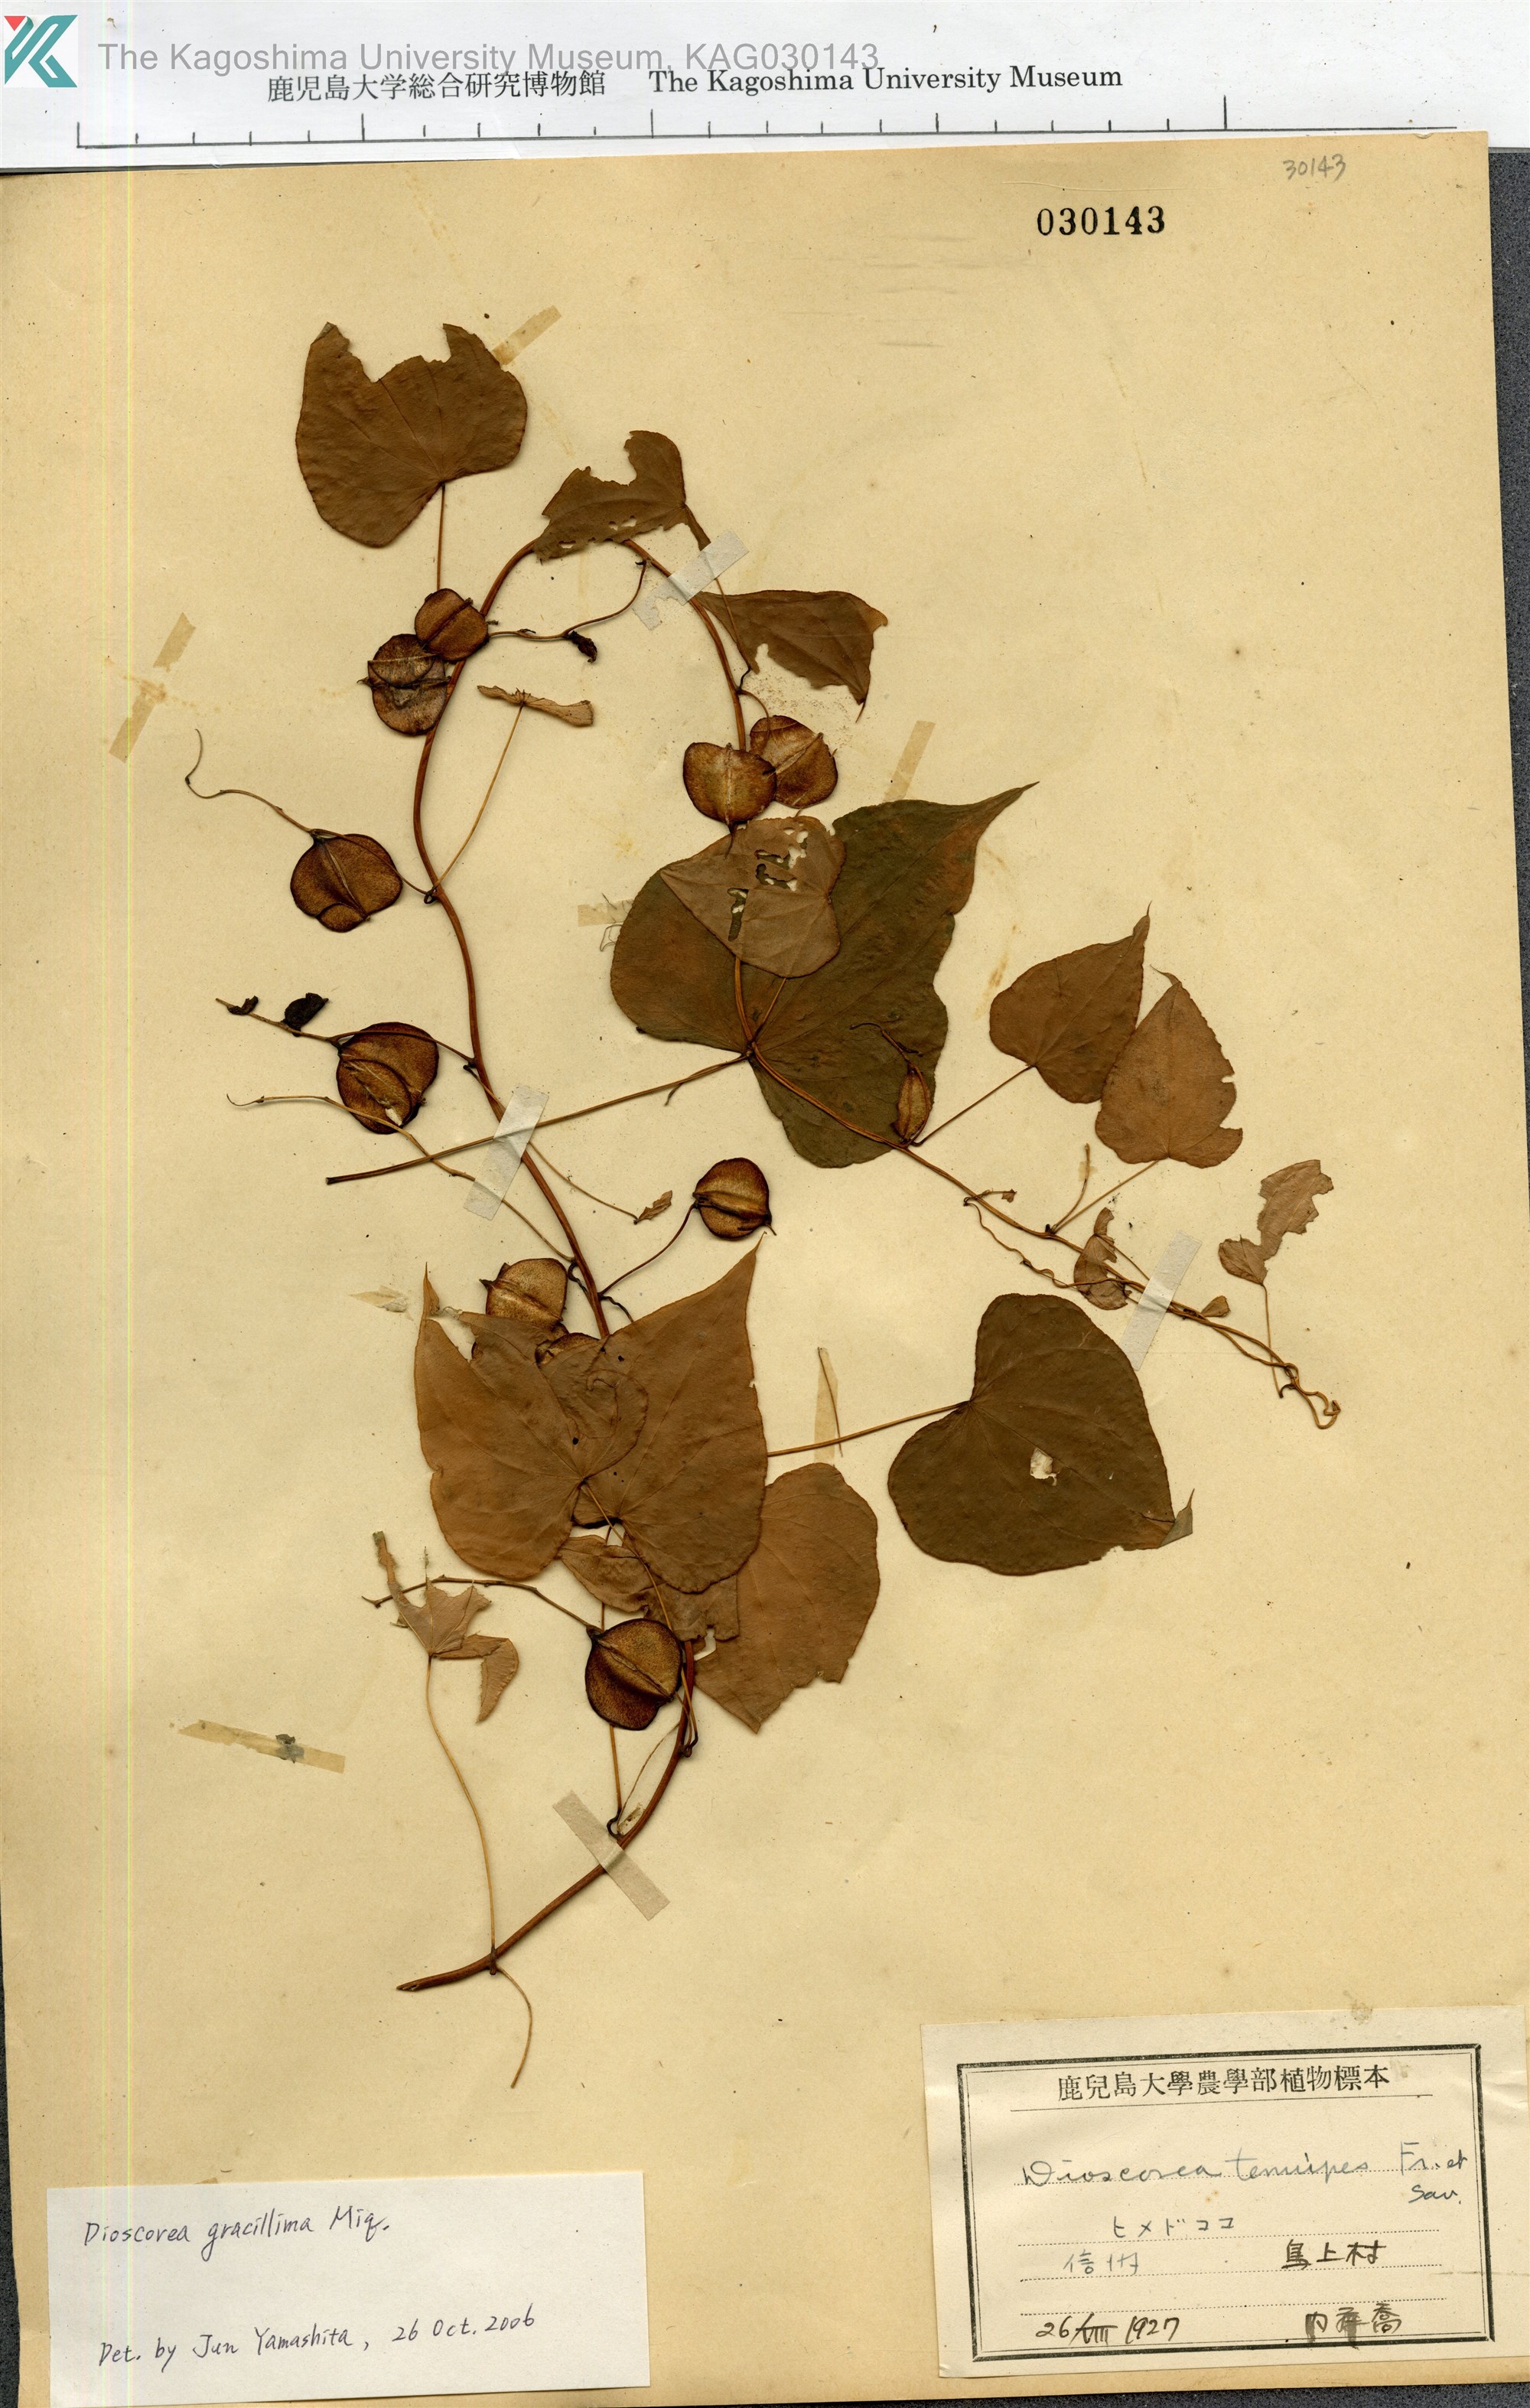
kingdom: Plantae
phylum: Tracheophyta
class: Liliopsida
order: Dioscoreales
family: Dioscoreaceae
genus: Dioscorea
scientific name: Dioscorea tenuipes
